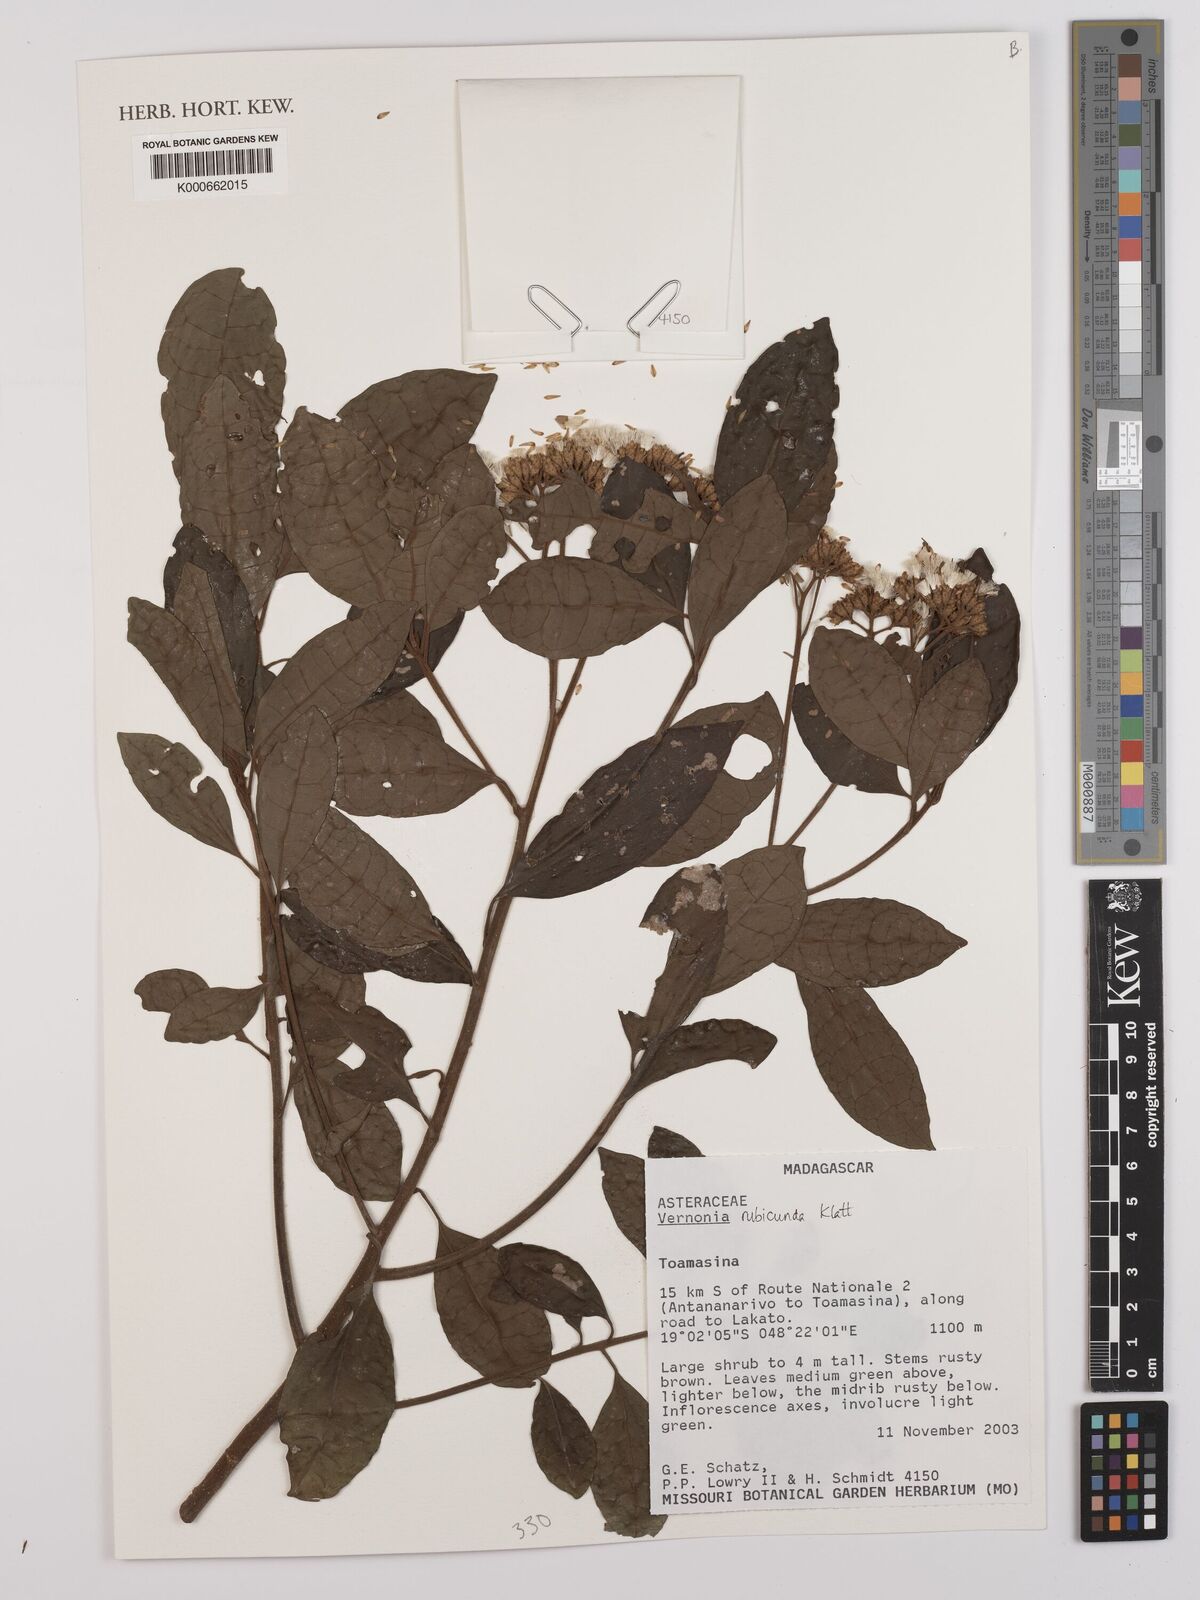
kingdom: Plantae
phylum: Tracheophyta
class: Magnoliopsida
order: Asterales
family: Asteraceae
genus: Jeffreycia
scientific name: Jeffreycia hildebrandtii
